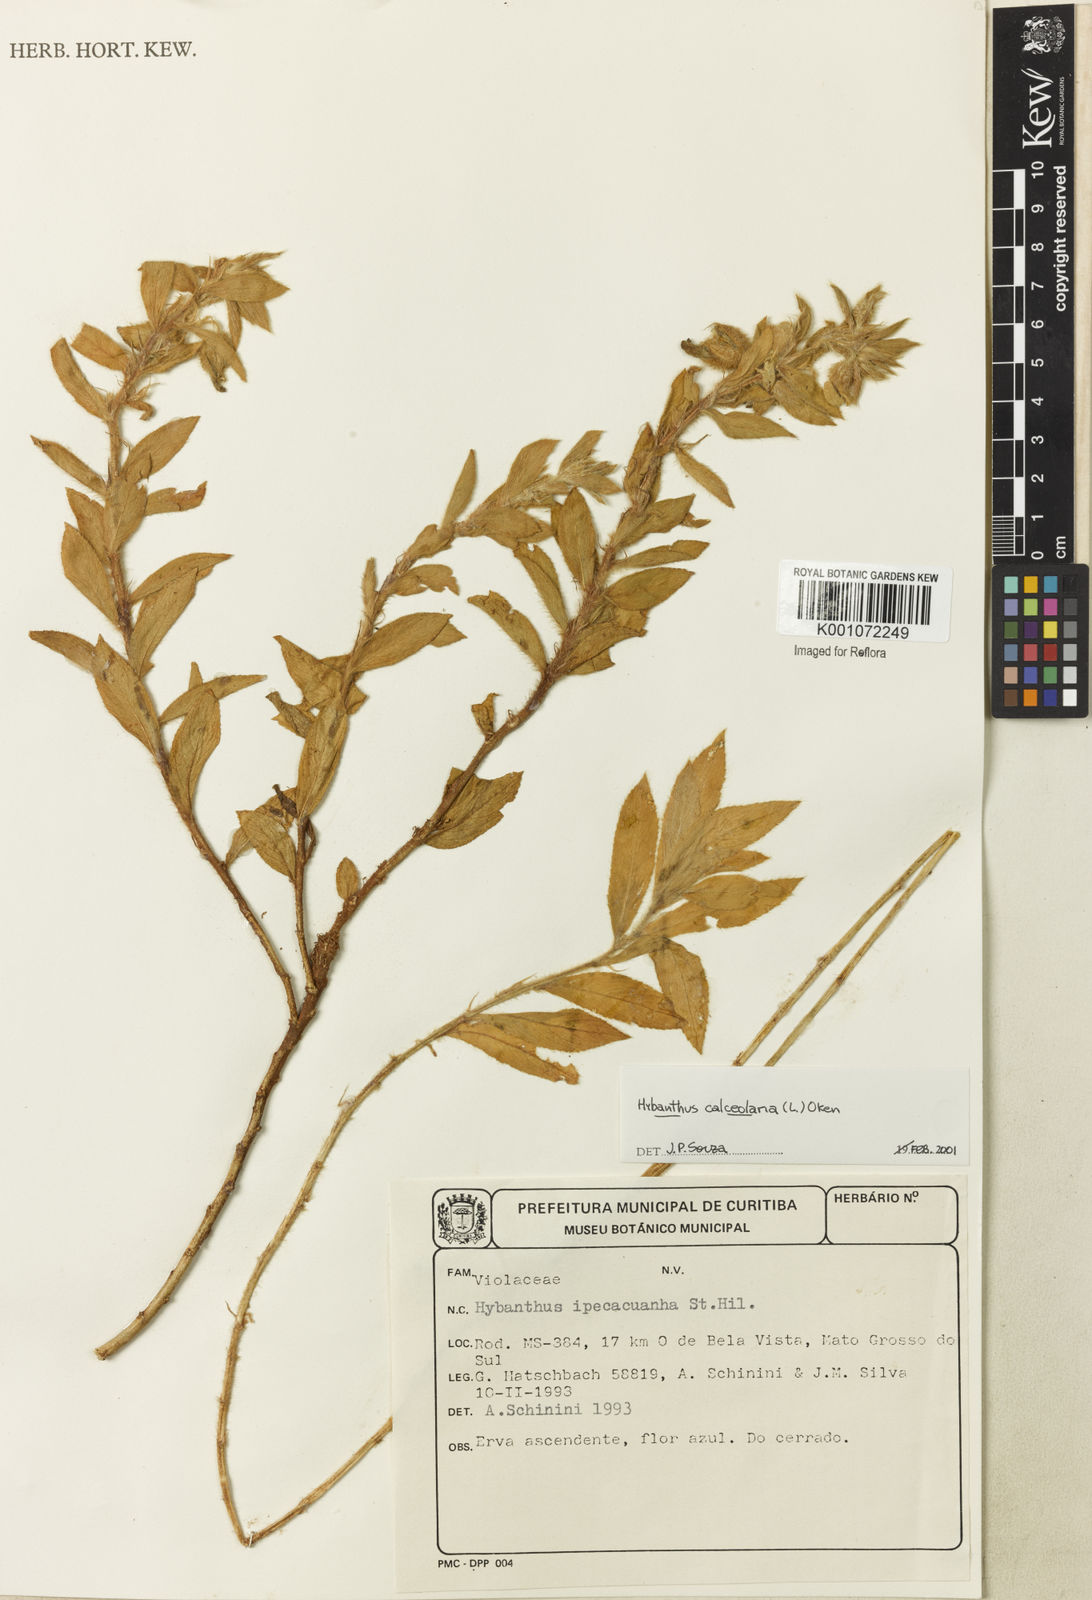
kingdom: Plantae
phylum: Tracheophyta
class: Magnoliopsida
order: Malpighiales
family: Violaceae
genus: Pombalia
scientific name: Pombalia calceolaria
